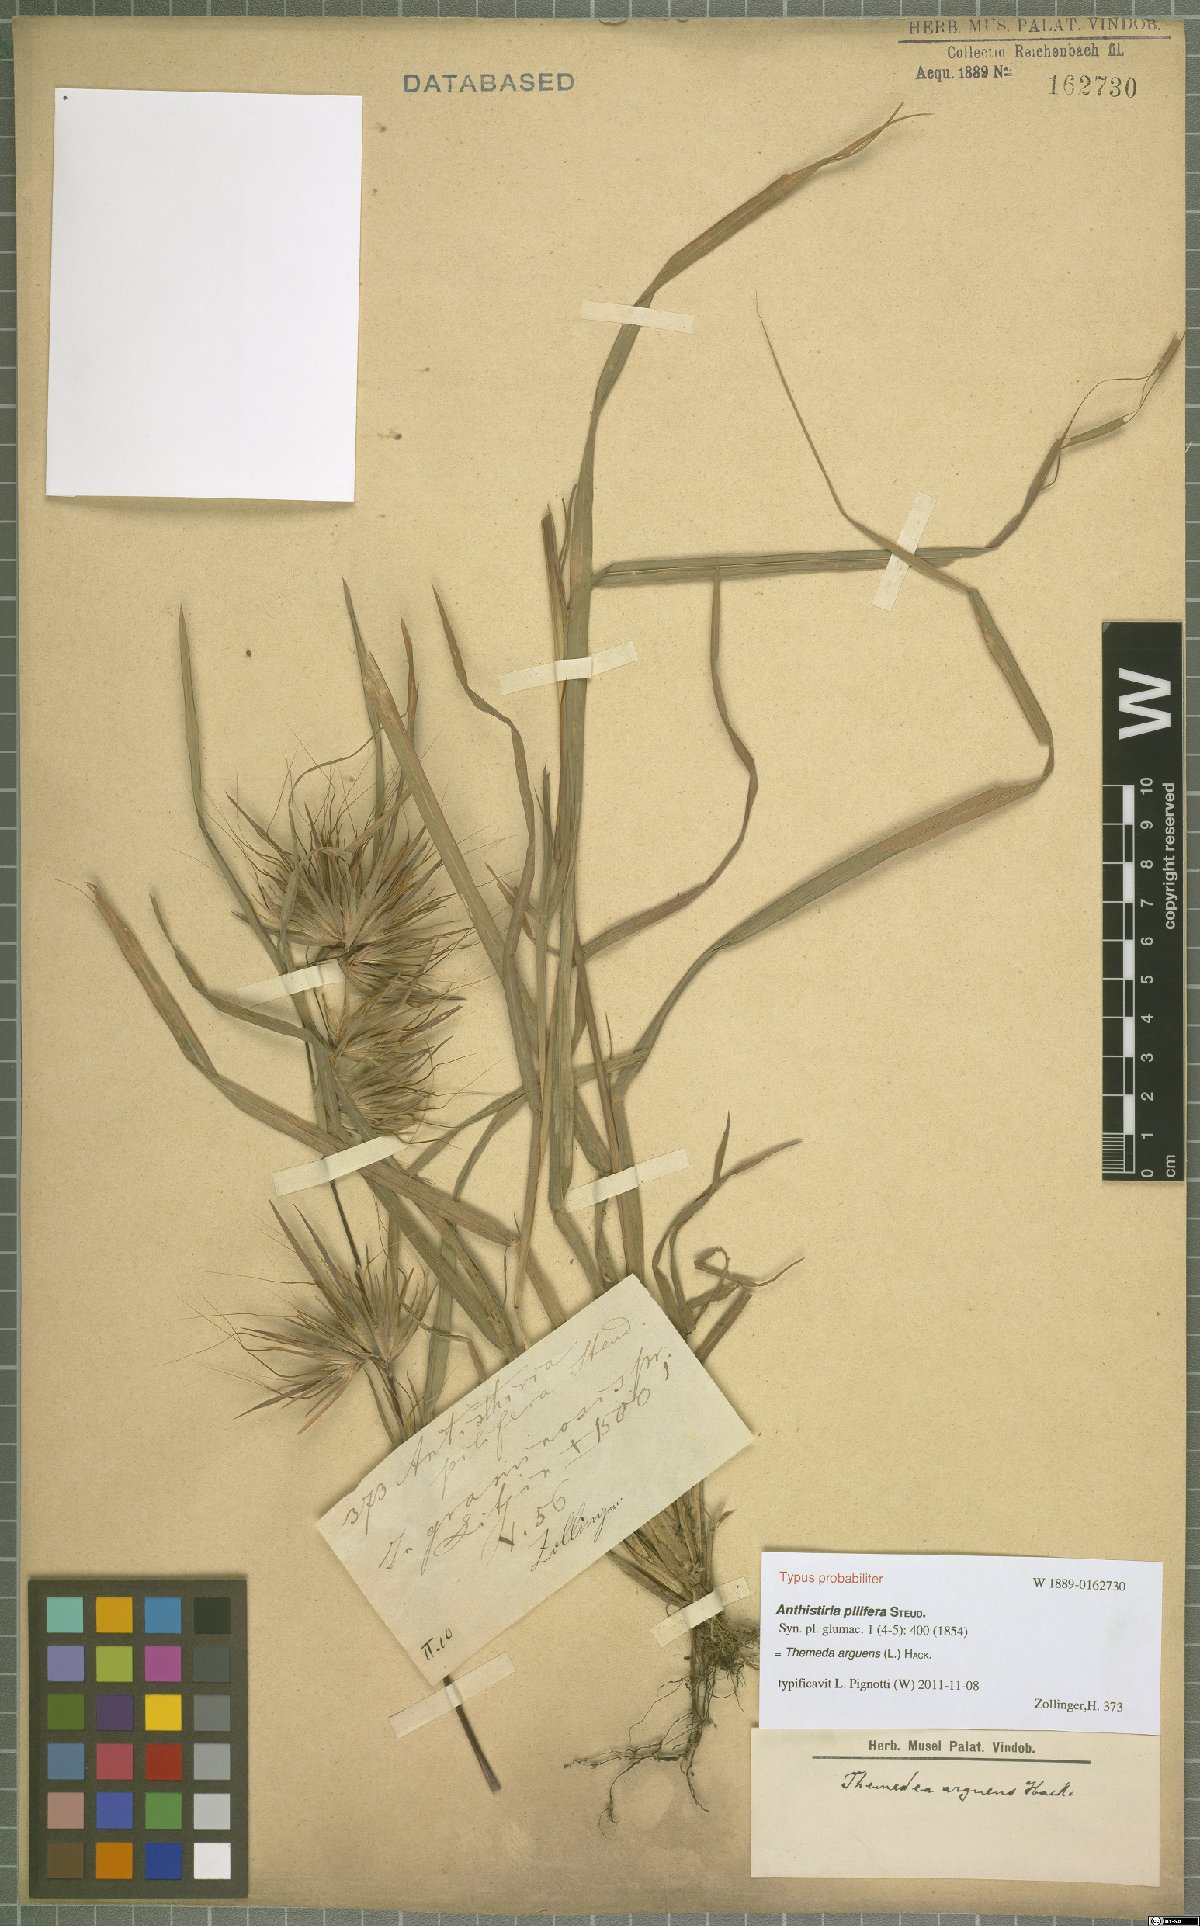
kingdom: Plantae
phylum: Tracheophyta
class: Liliopsida
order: Poales
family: Poaceae
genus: Themeda
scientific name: Themeda arguens
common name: Christmas grass
